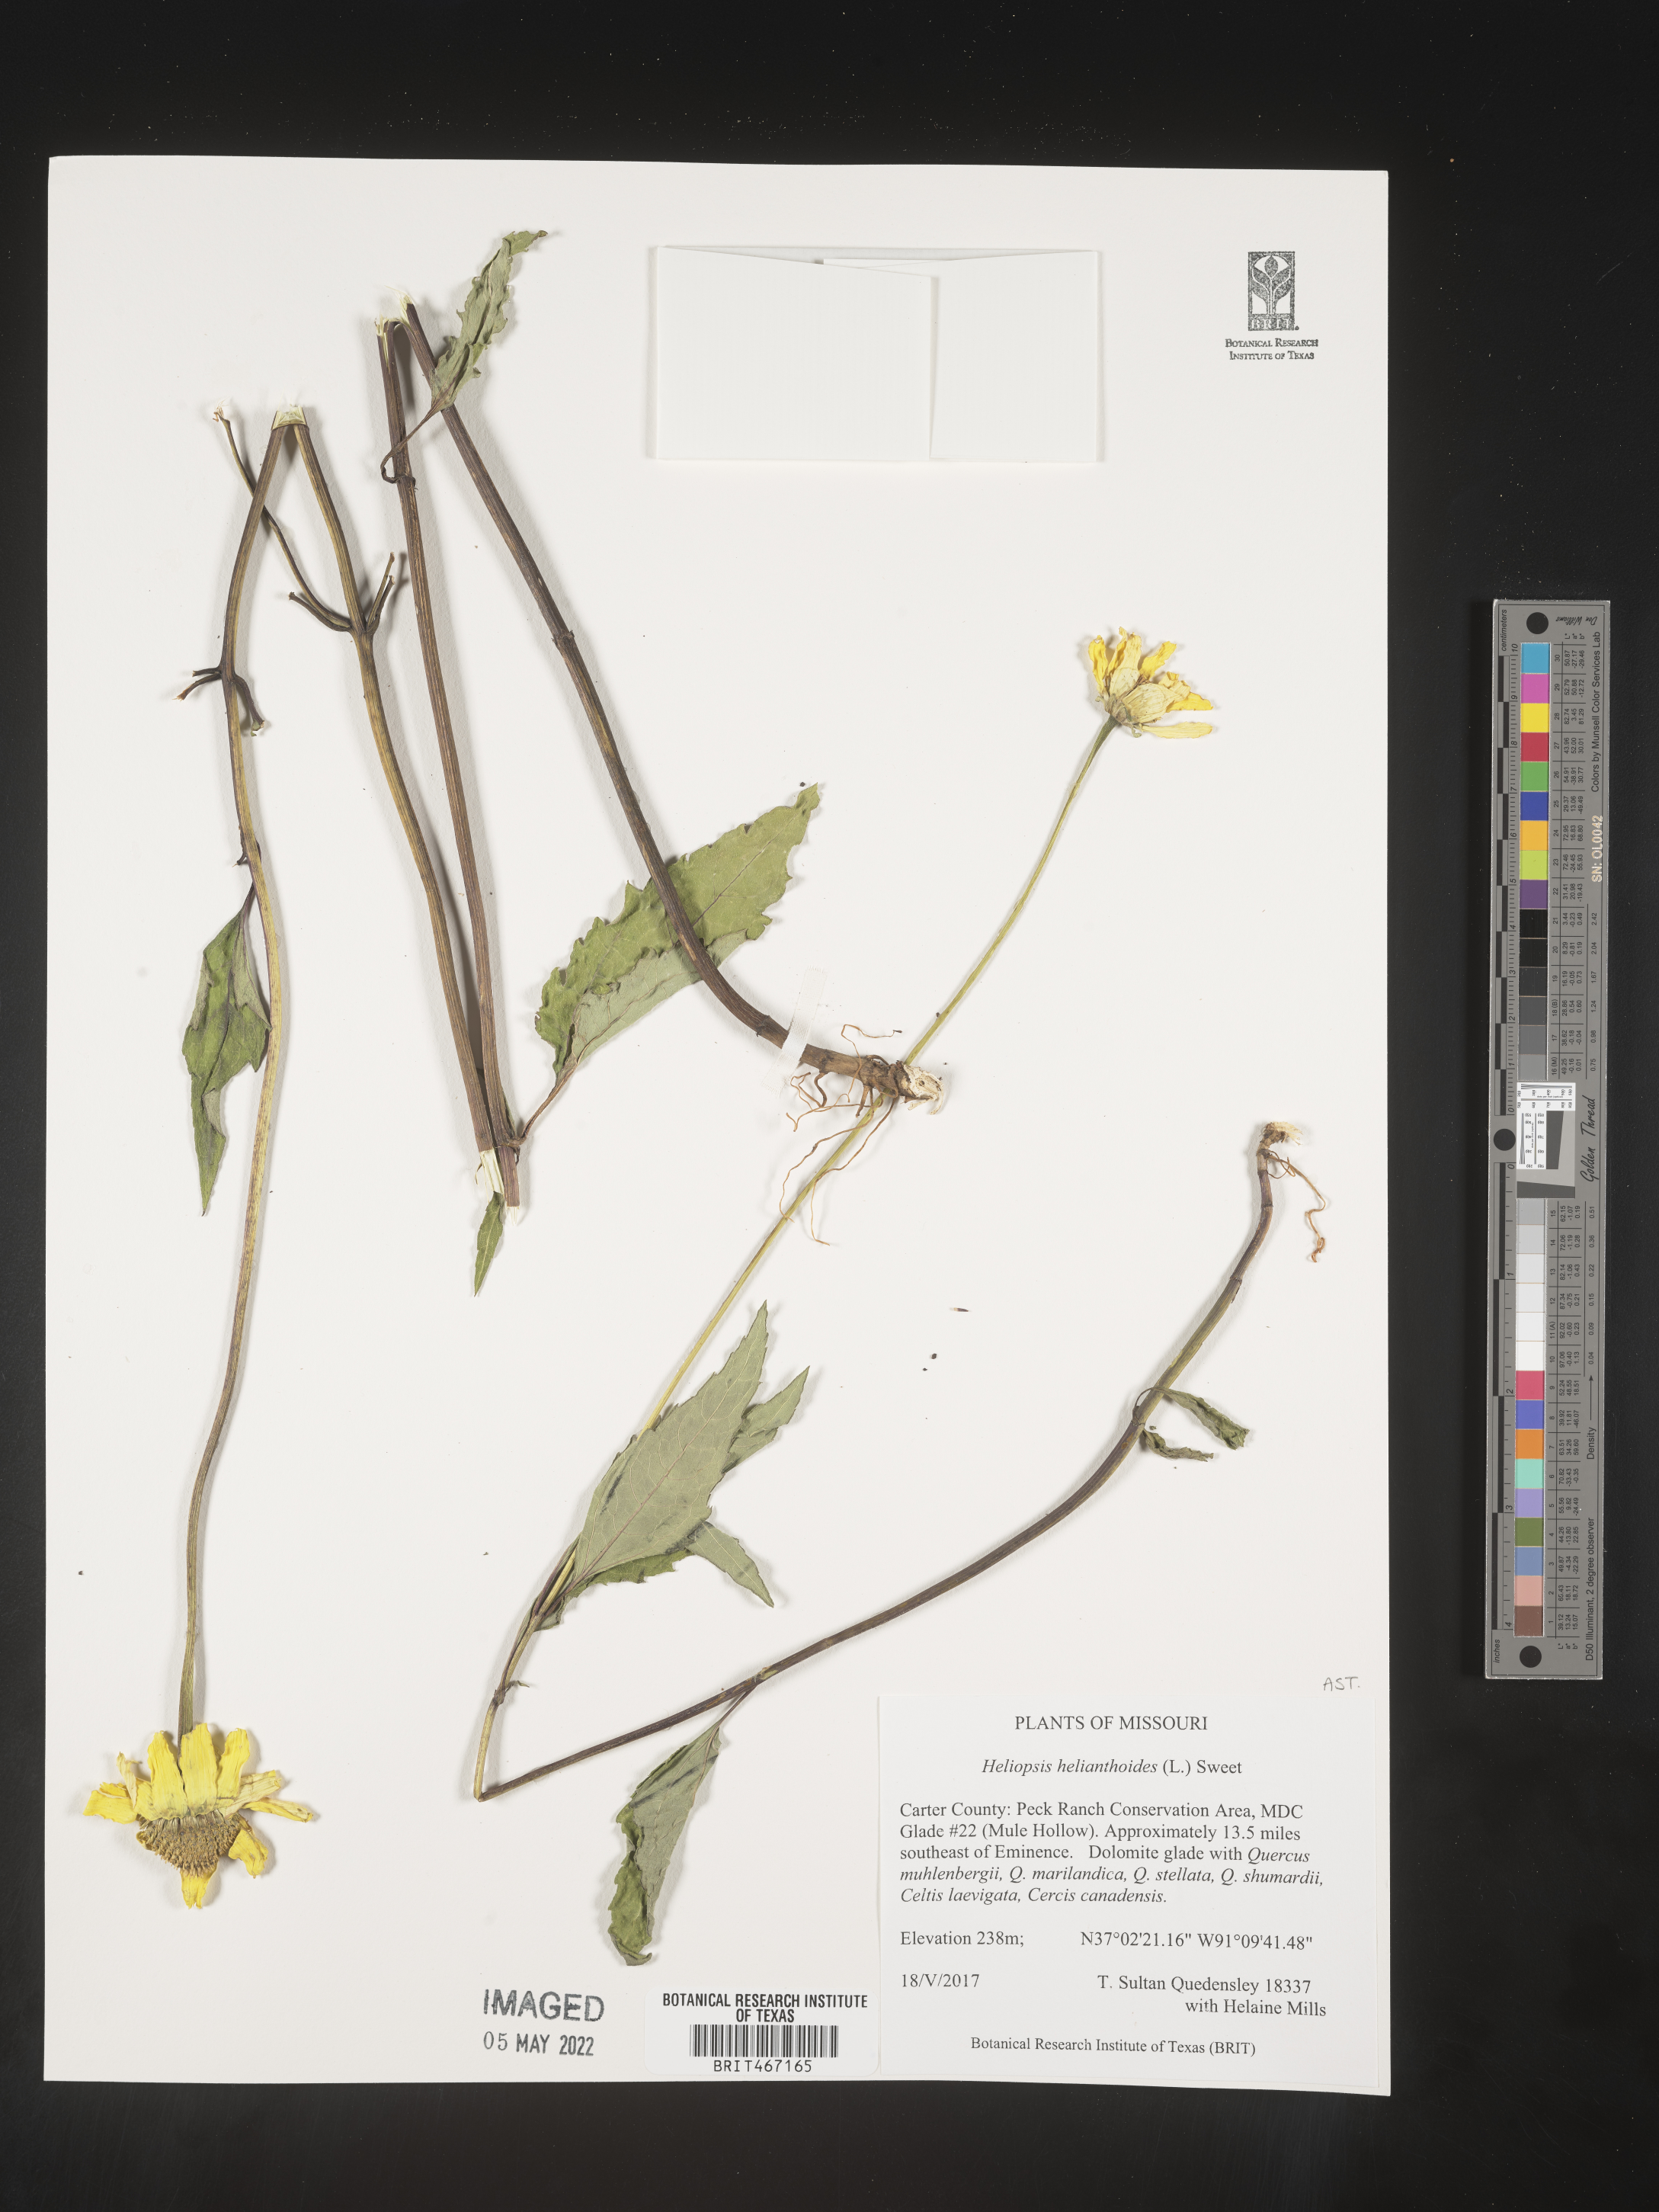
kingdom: Plantae
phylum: Tracheophyta
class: Magnoliopsida
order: Asterales
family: Asteraceae
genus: Heliopsis
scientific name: Heliopsis helianthoides
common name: False sunflower
